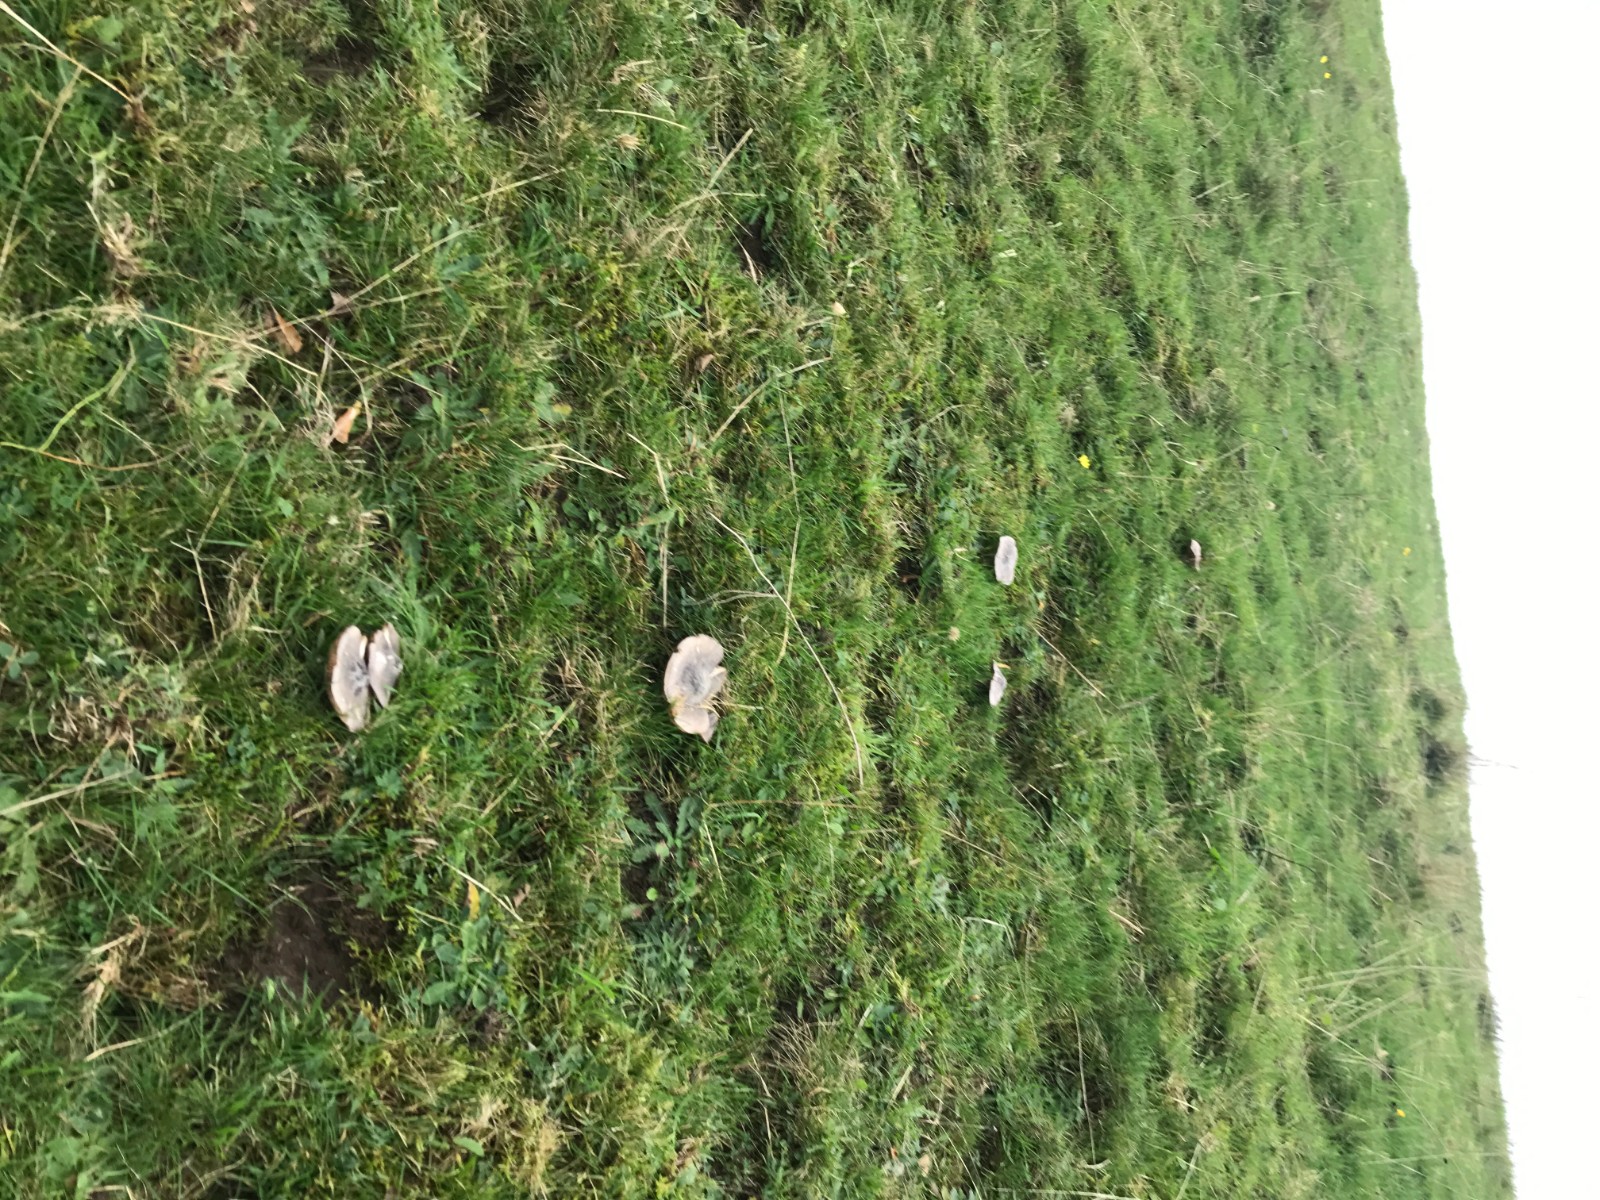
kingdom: Fungi
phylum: Basidiomycota
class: Agaricomycetes
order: Agaricales
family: Entolomataceae
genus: Entoloma
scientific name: Entoloma madidum
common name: indigo-rødblad
